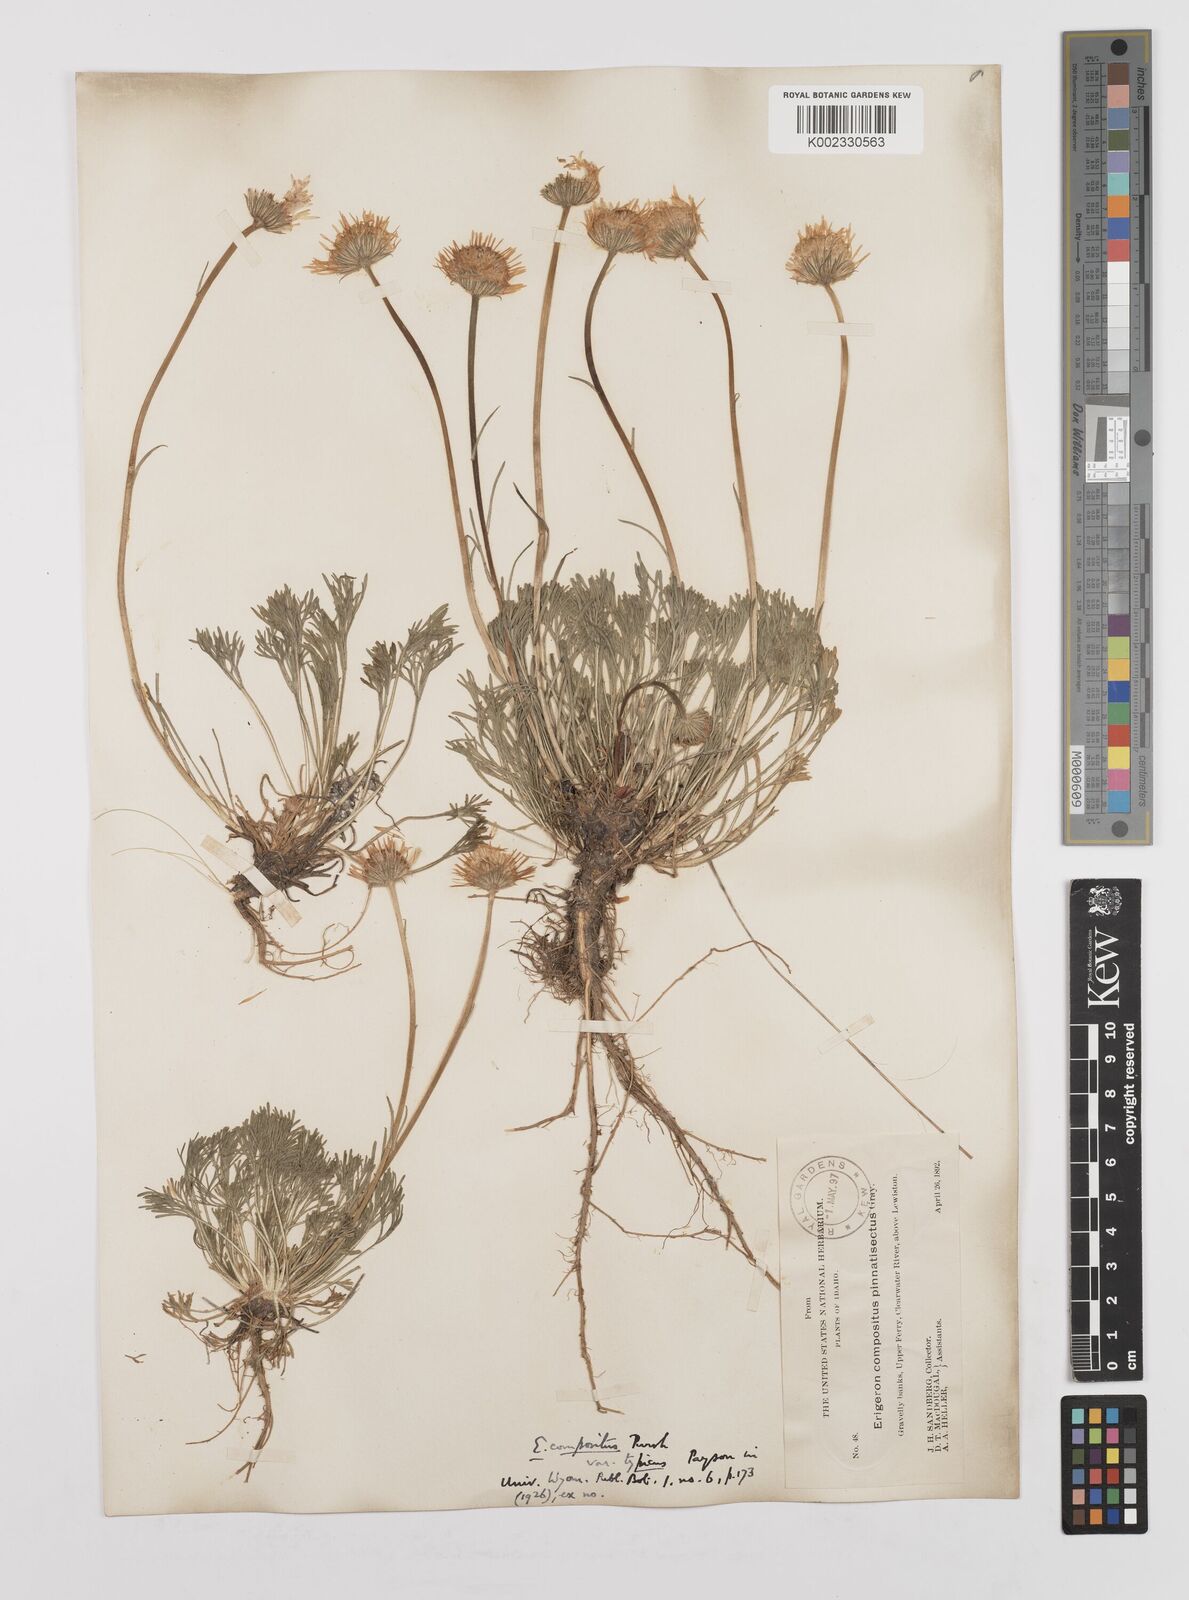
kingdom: Plantae
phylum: Tracheophyta
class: Magnoliopsida
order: Asterales
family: Asteraceae
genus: Erigeron
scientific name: Erigeron compositus
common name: Dwarf mountain fleabane
